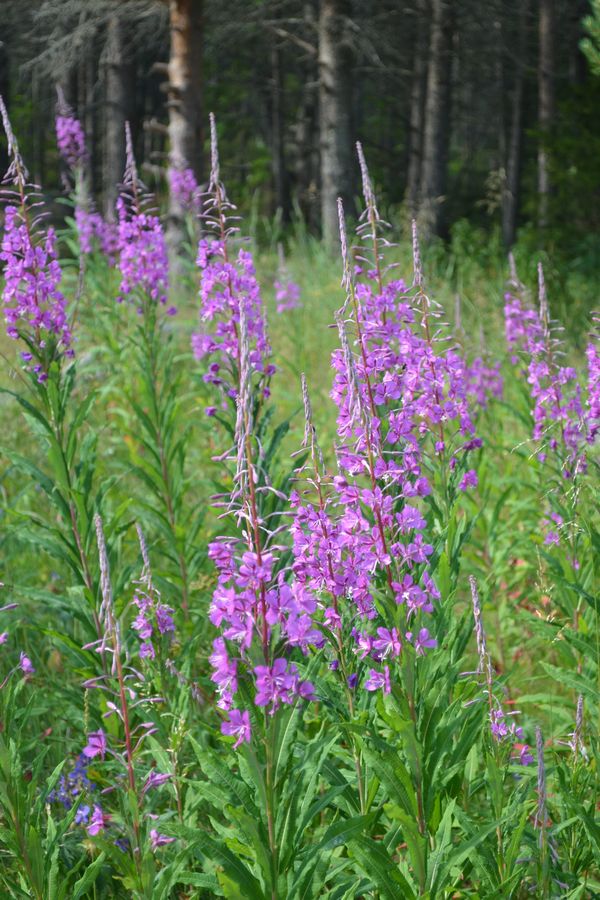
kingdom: Plantae
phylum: Tracheophyta
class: Magnoliopsida
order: Myrtales
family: Onagraceae
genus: Chamaenerion
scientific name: Chamaenerion angustifolium
